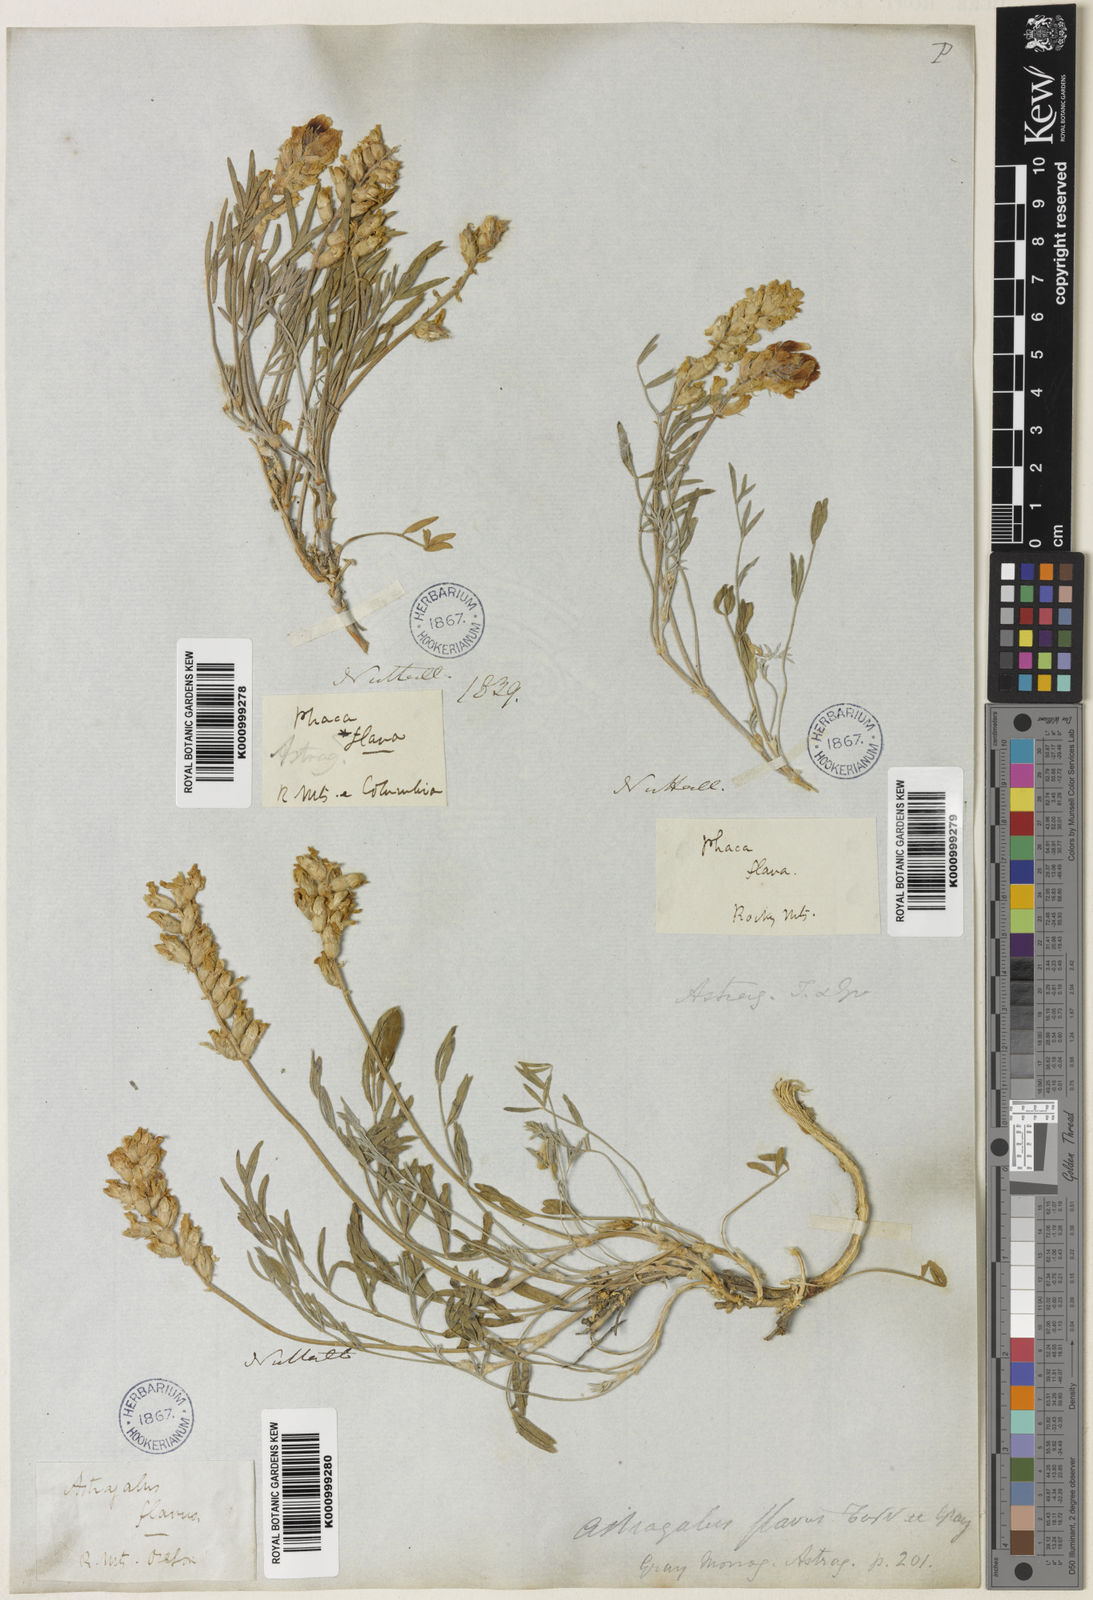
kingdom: Plantae
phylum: Tracheophyta
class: Magnoliopsida
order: Fabales
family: Fabaceae
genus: Astragalus
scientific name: Astragalus flavus
